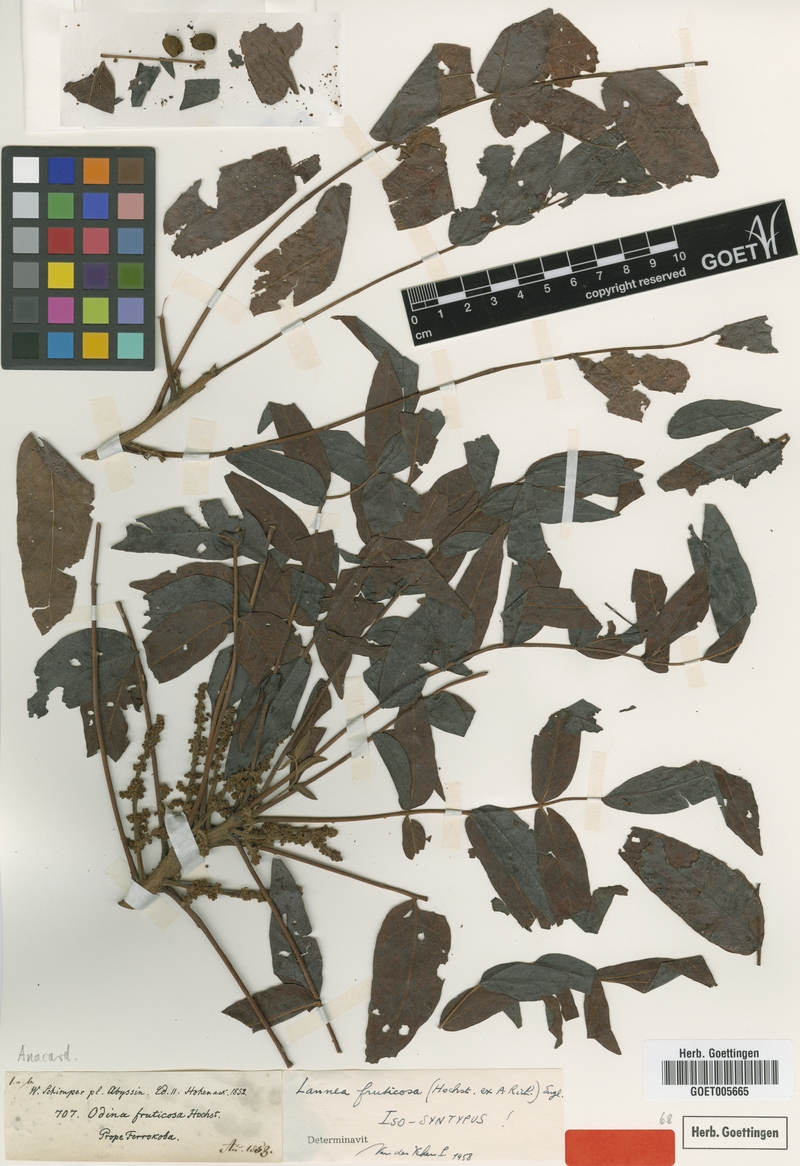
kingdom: Plantae
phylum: Tracheophyta
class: Magnoliopsida
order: Sapindales
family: Anacardiaceae
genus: Lannea
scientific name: Lannea fruticosa
